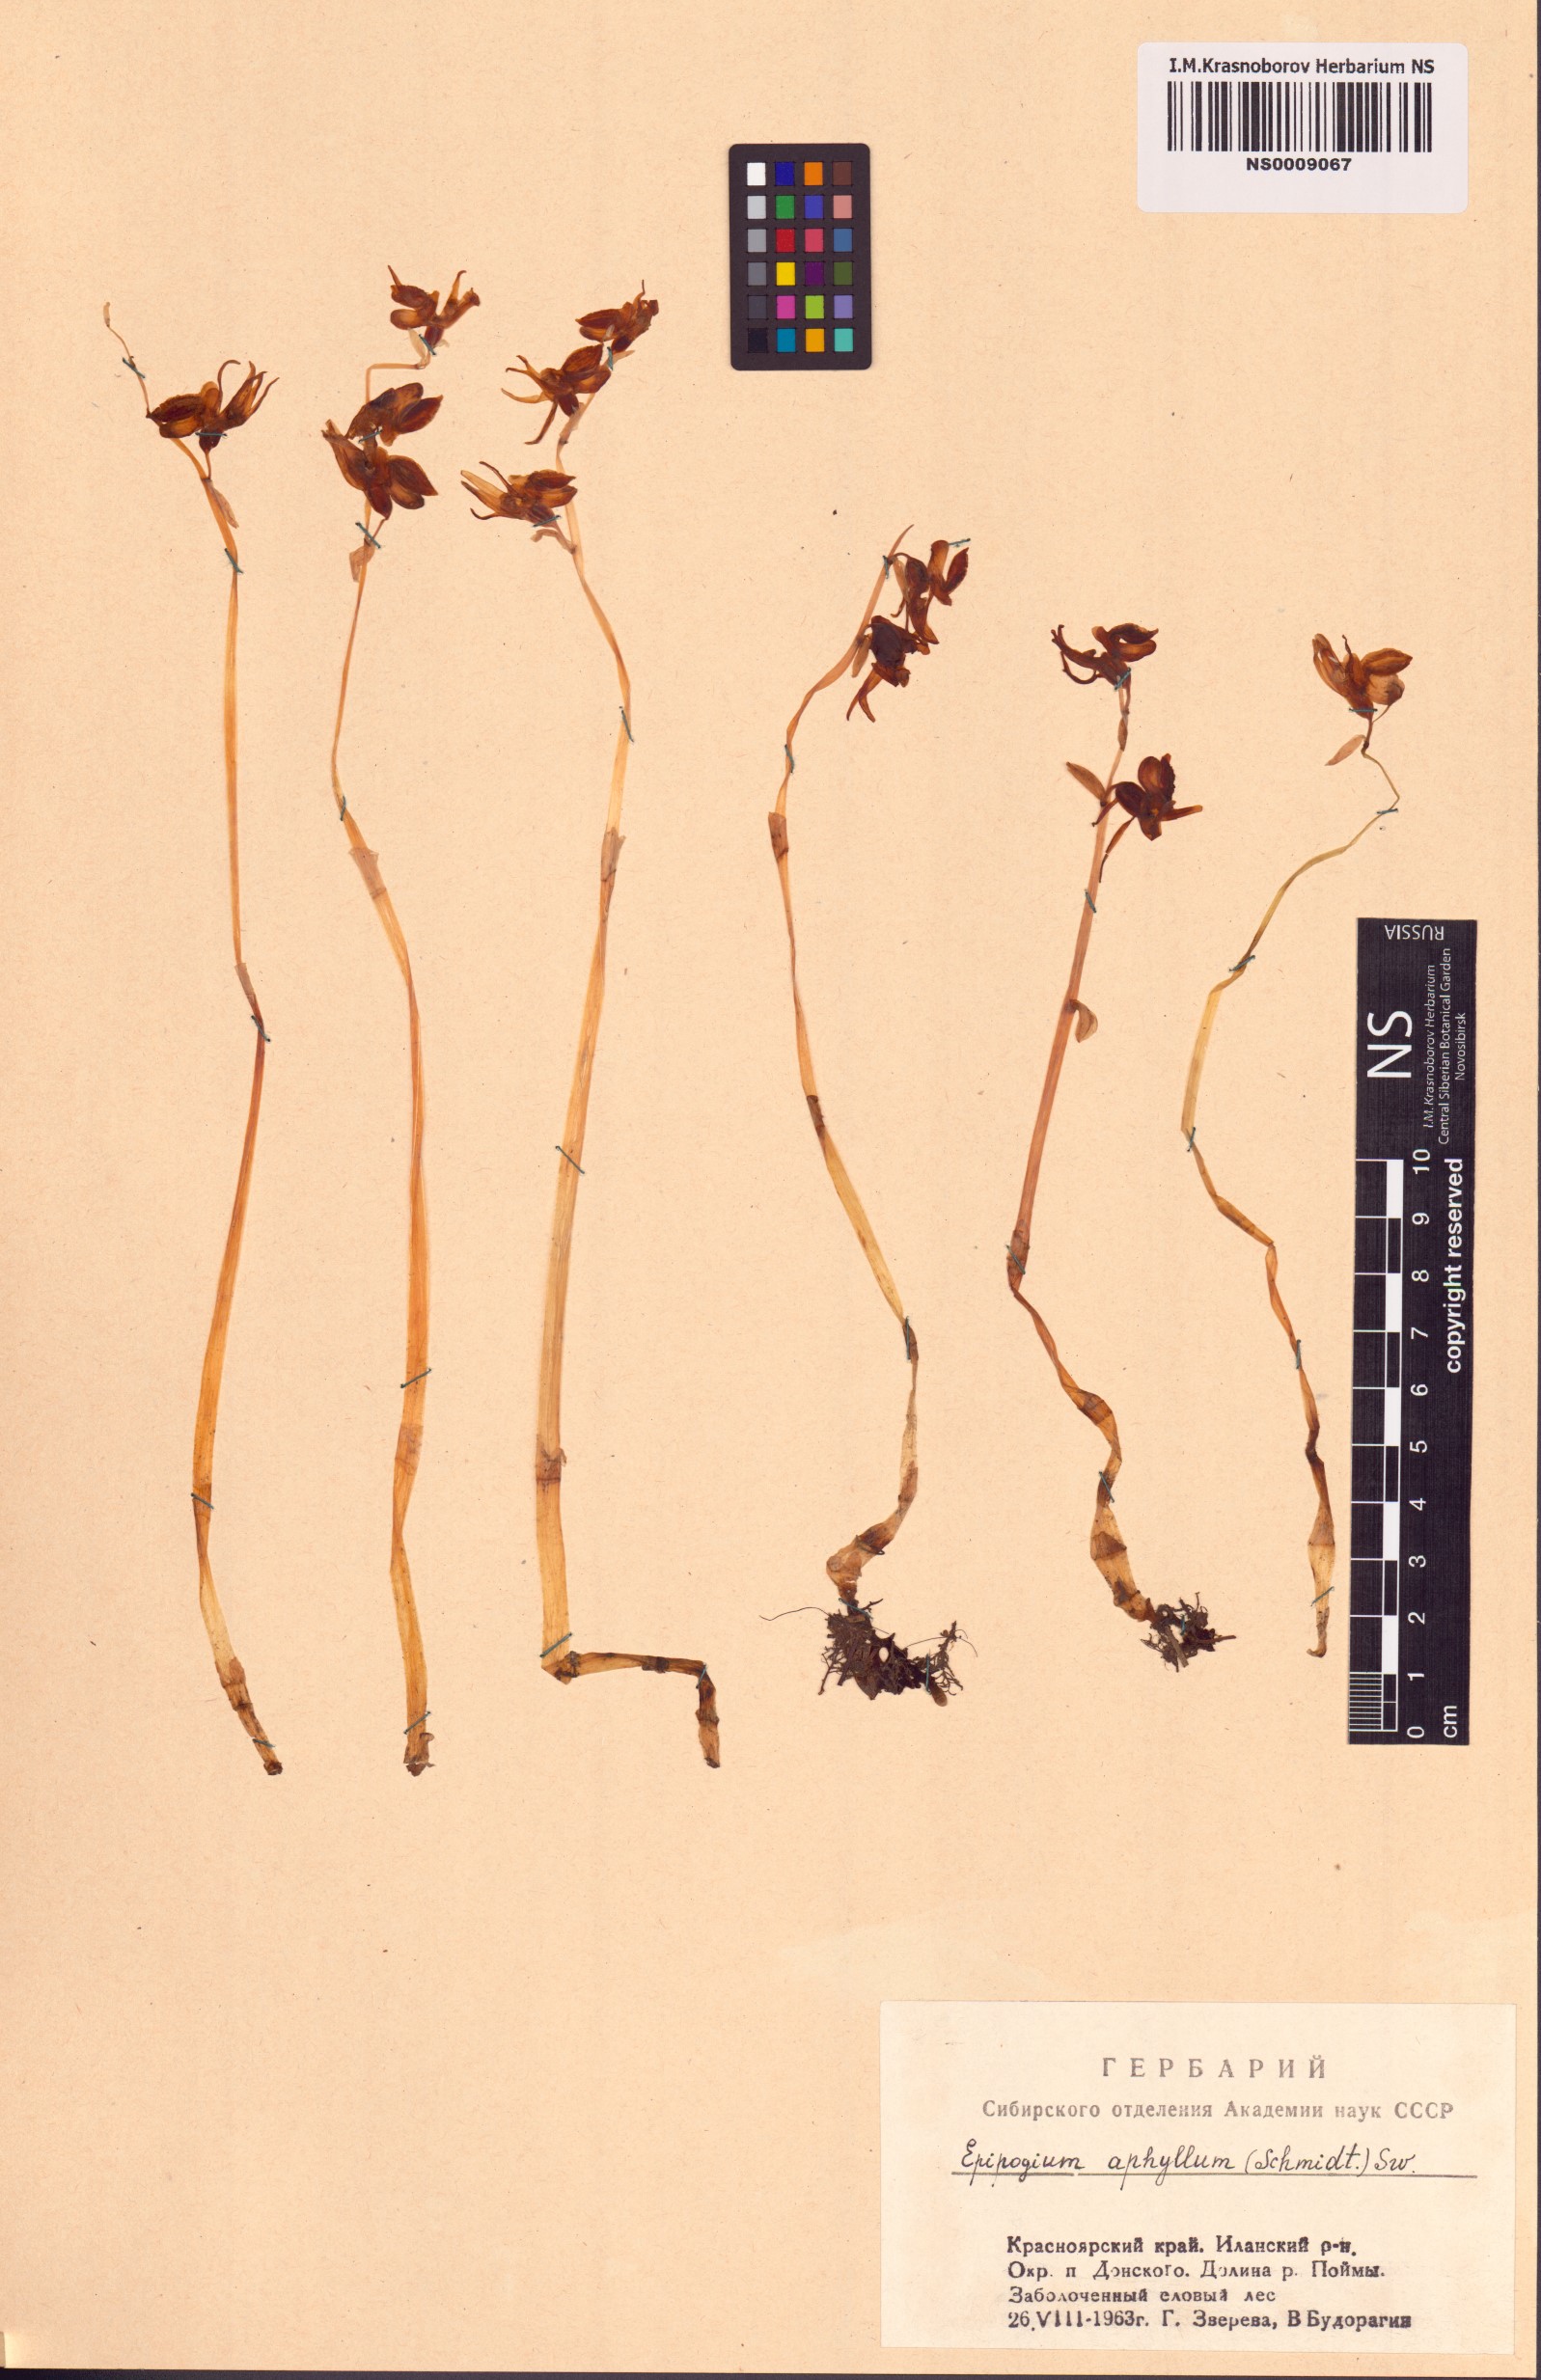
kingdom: Plantae
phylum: Tracheophyta
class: Liliopsida
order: Asparagales
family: Orchidaceae
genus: Epipogium
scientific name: Epipogium aphyllum
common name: Ghost orchid
